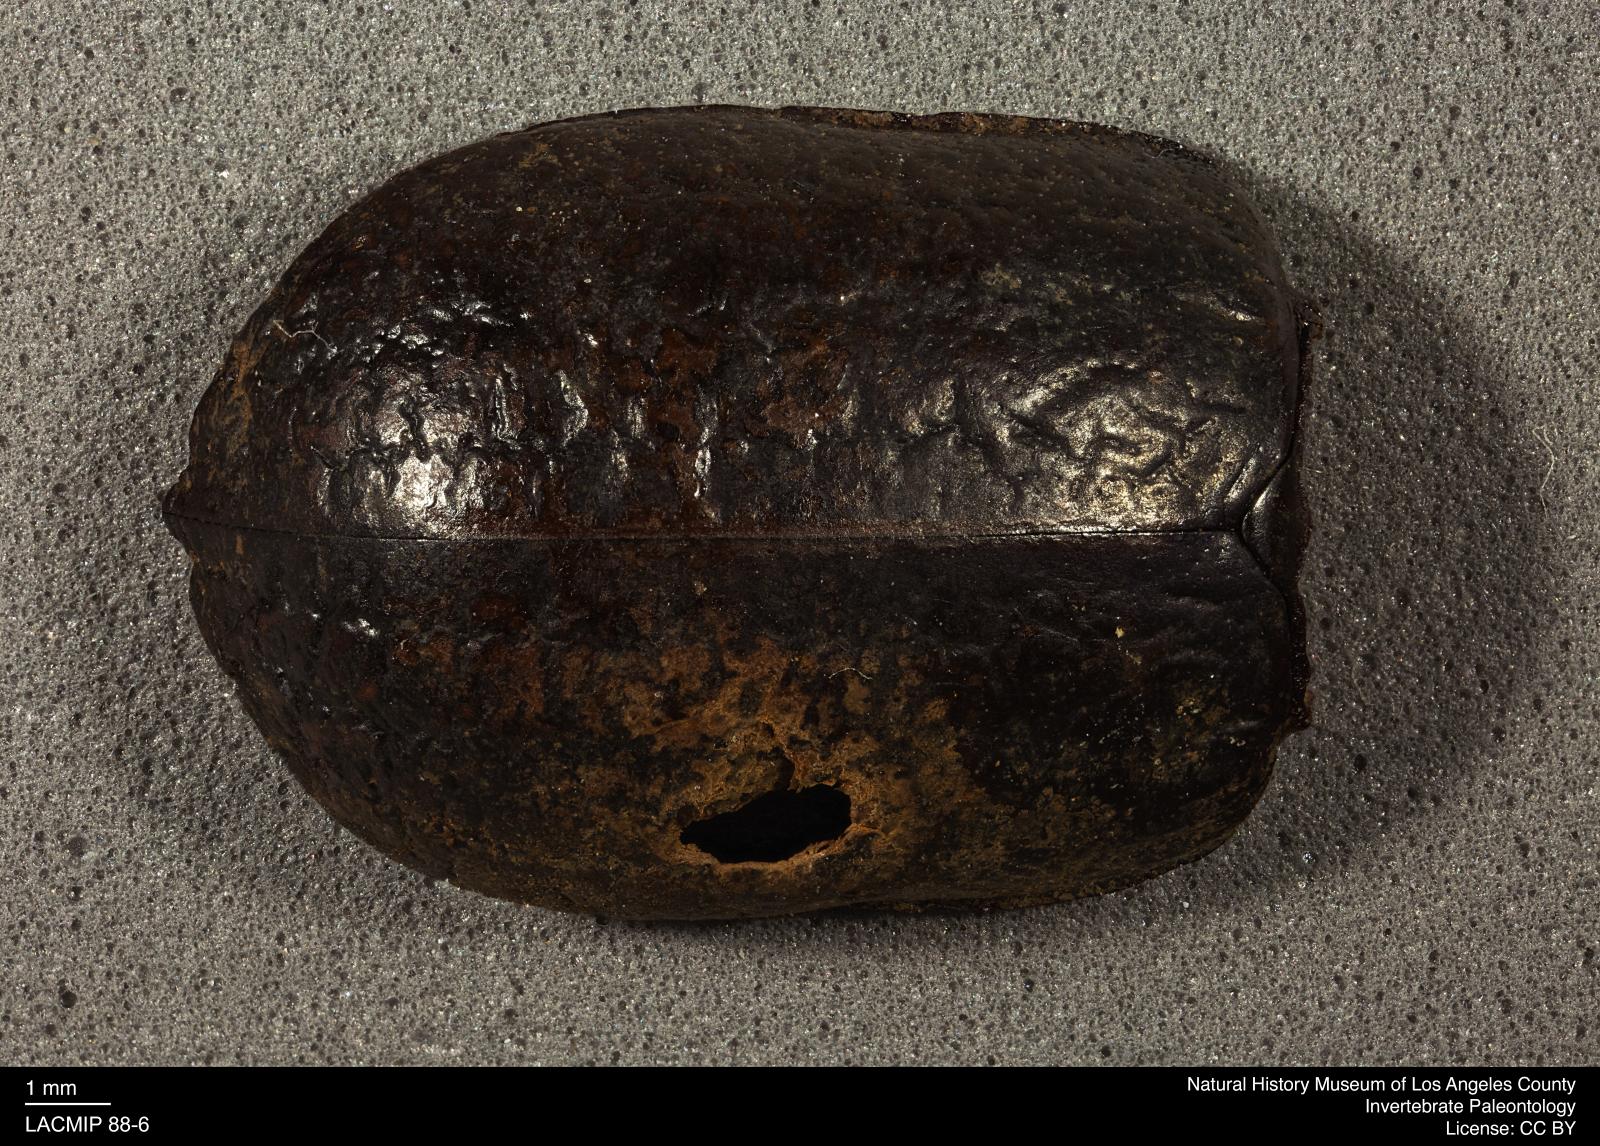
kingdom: Animalia
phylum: Arthropoda
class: Insecta
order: Coleoptera
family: Tenebrionidae
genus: Coniontis
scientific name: Coniontis abdominalis
